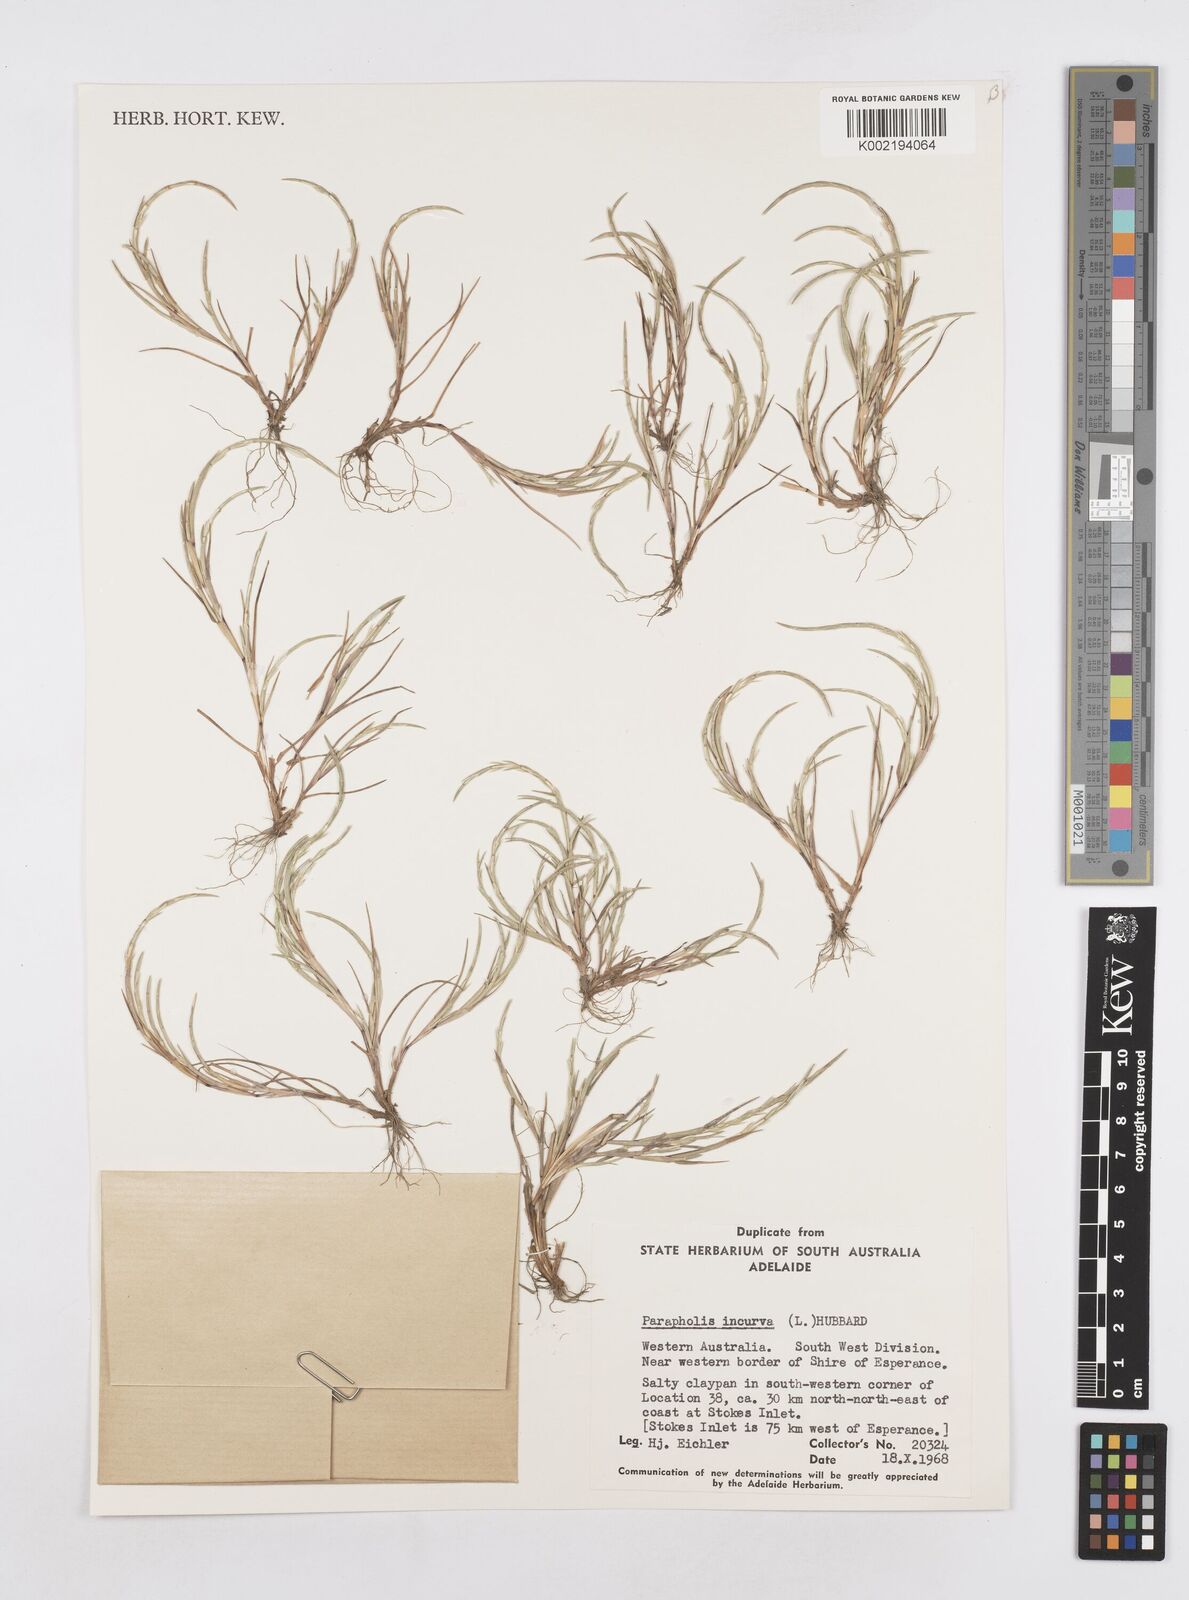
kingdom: Plantae
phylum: Tracheophyta
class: Liliopsida
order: Poales
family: Poaceae
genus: Parapholis
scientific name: Parapholis incurva
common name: Curved sicklegrass
